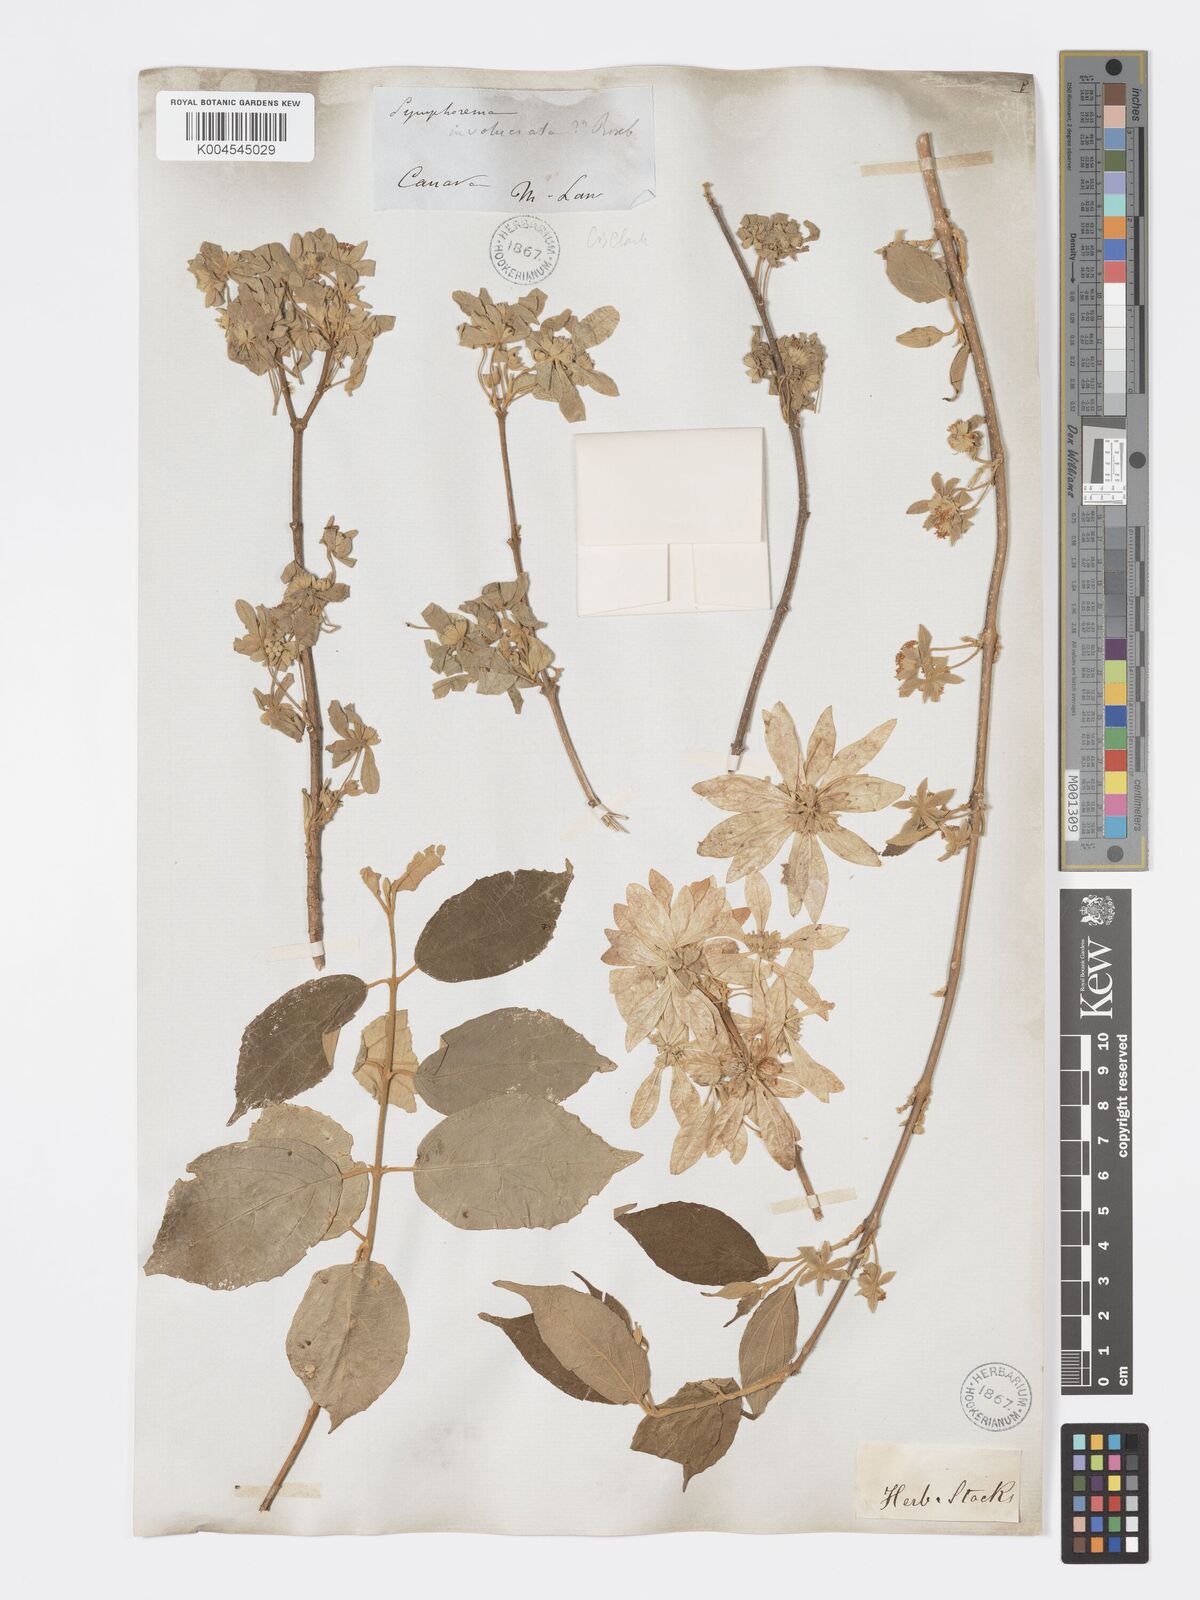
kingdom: Plantae
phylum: Tracheophyta
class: Magnoliopsida
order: Lamiales
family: Lamiaceae
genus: Symphorema
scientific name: Symphorema involucratum
